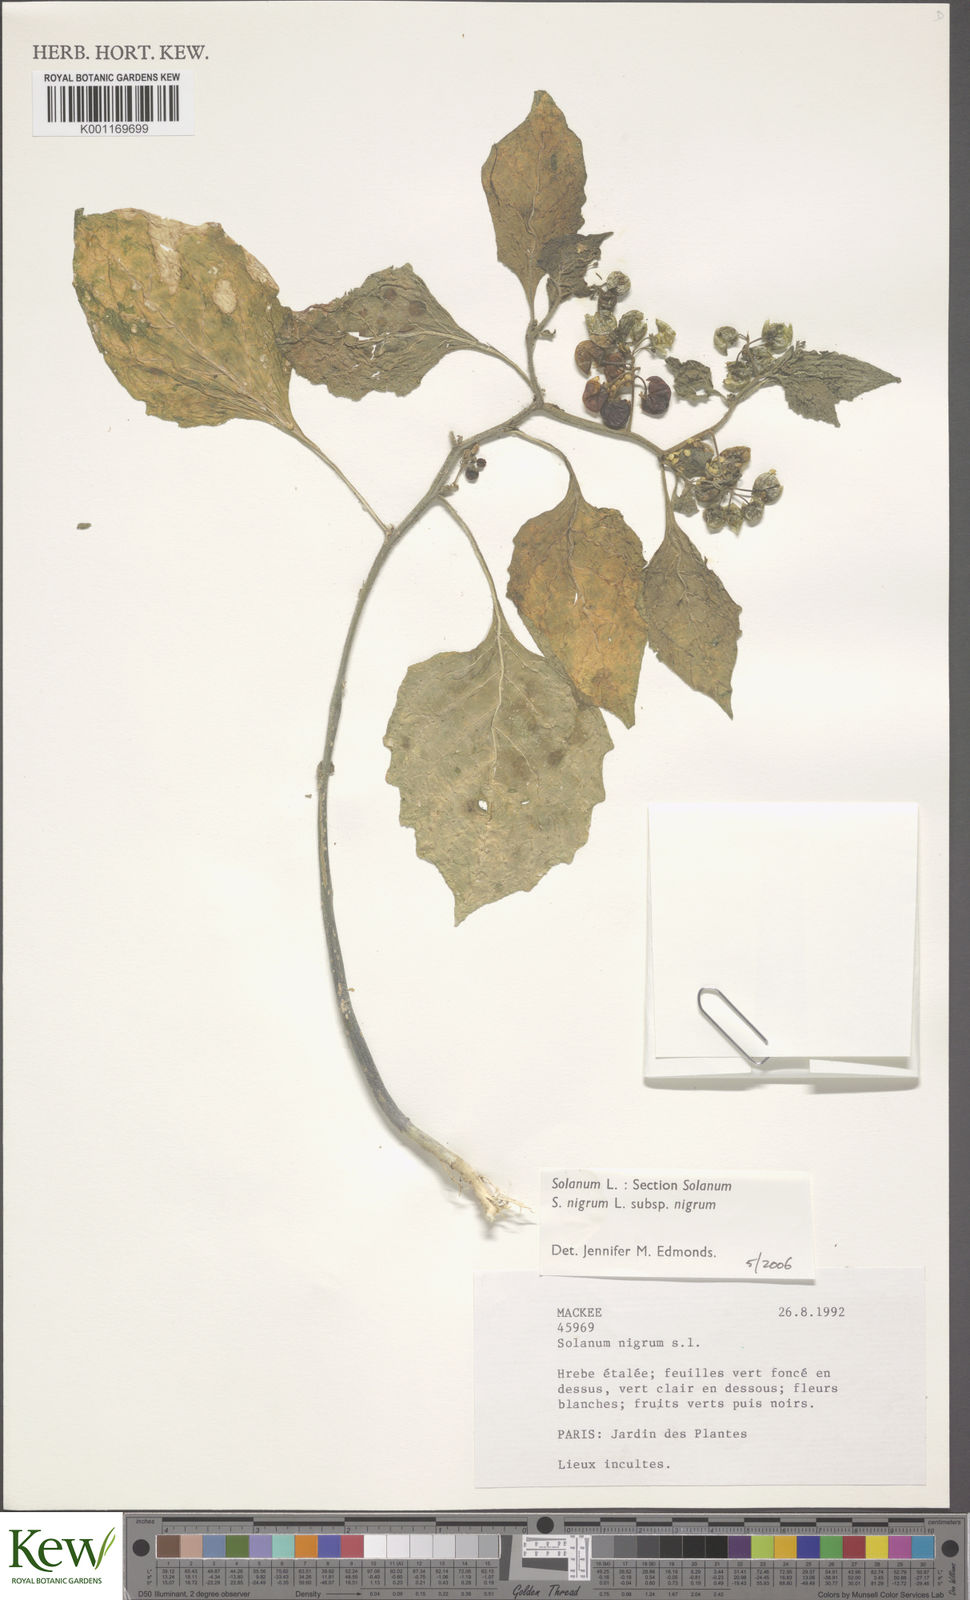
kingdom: Plantae
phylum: Tracheophyta
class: Magnoliopsida
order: Solanales
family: Solanaceae
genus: Solanum
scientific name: Solanum nigrum
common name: Black nightshade
